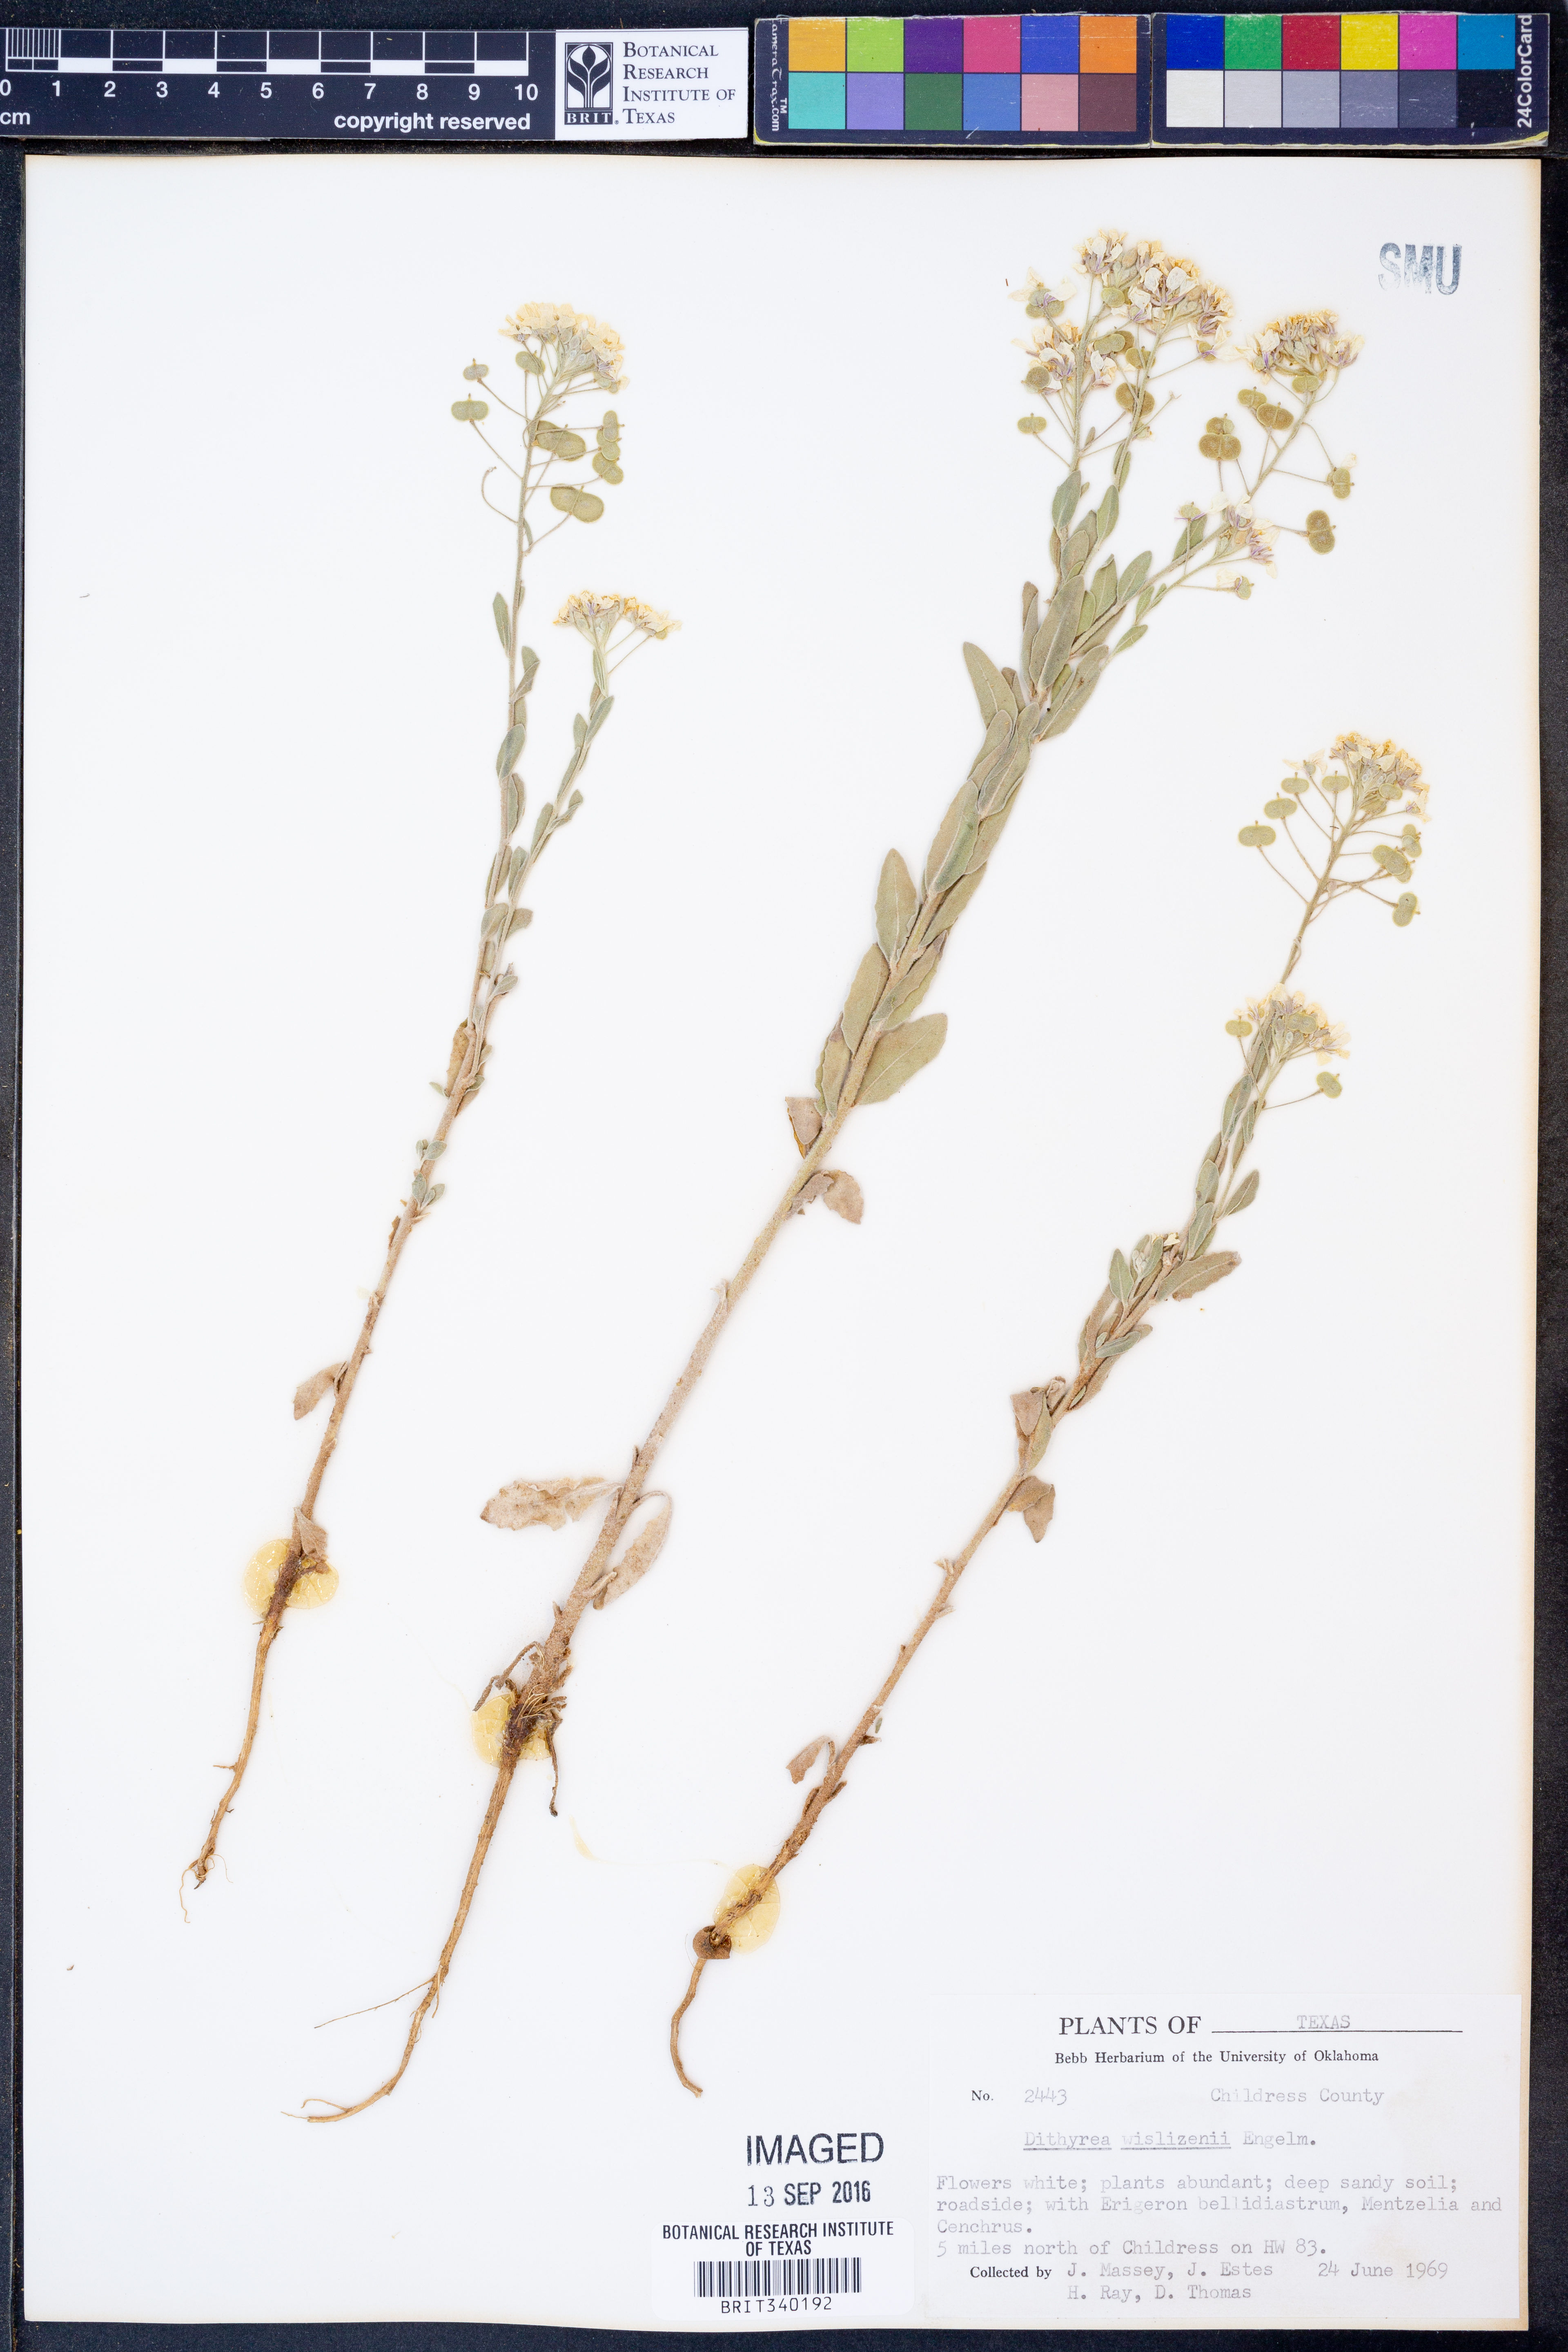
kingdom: Plantae
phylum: Tracheophyta
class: Magnoliopsida
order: Brassicales
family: Brassicaceae
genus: Dimorphocarpa
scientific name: Dimorphocarpa wislizenii
